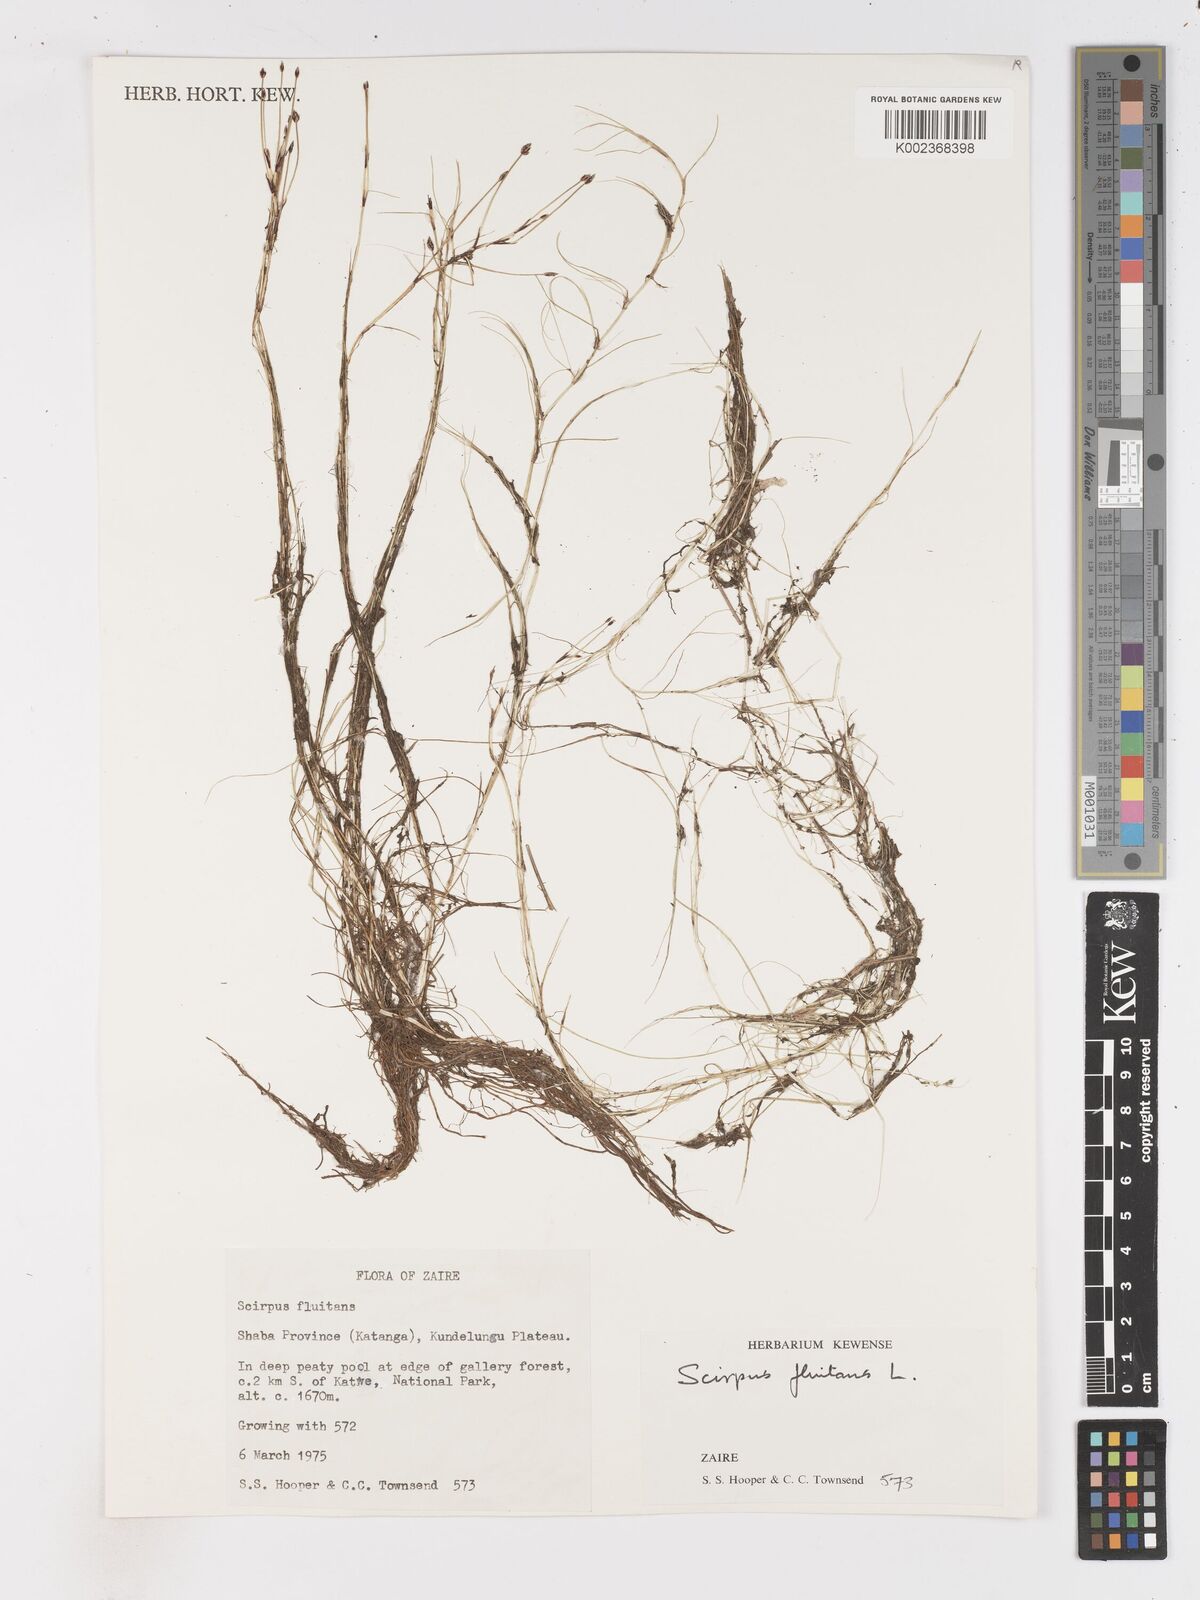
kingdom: Plantae
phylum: Tracheophyta
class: Liliopsida
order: Poales
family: Cyperaceae
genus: Isolepis
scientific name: Isolepis fluitans
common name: Floating club-rush
